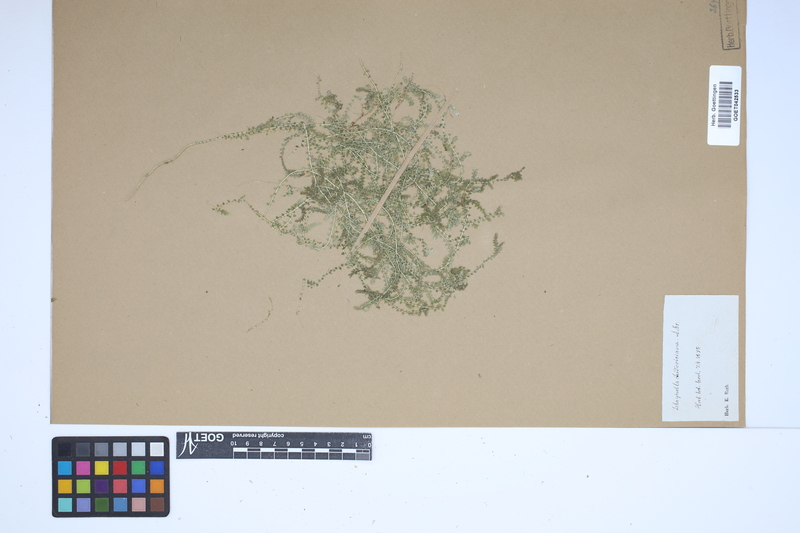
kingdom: Plantae
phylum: Tracheophyta
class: Lycopodiopsida
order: Selaginellales
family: Selaginellaceae
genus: Selaginella
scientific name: Selaginella ludoviciana
